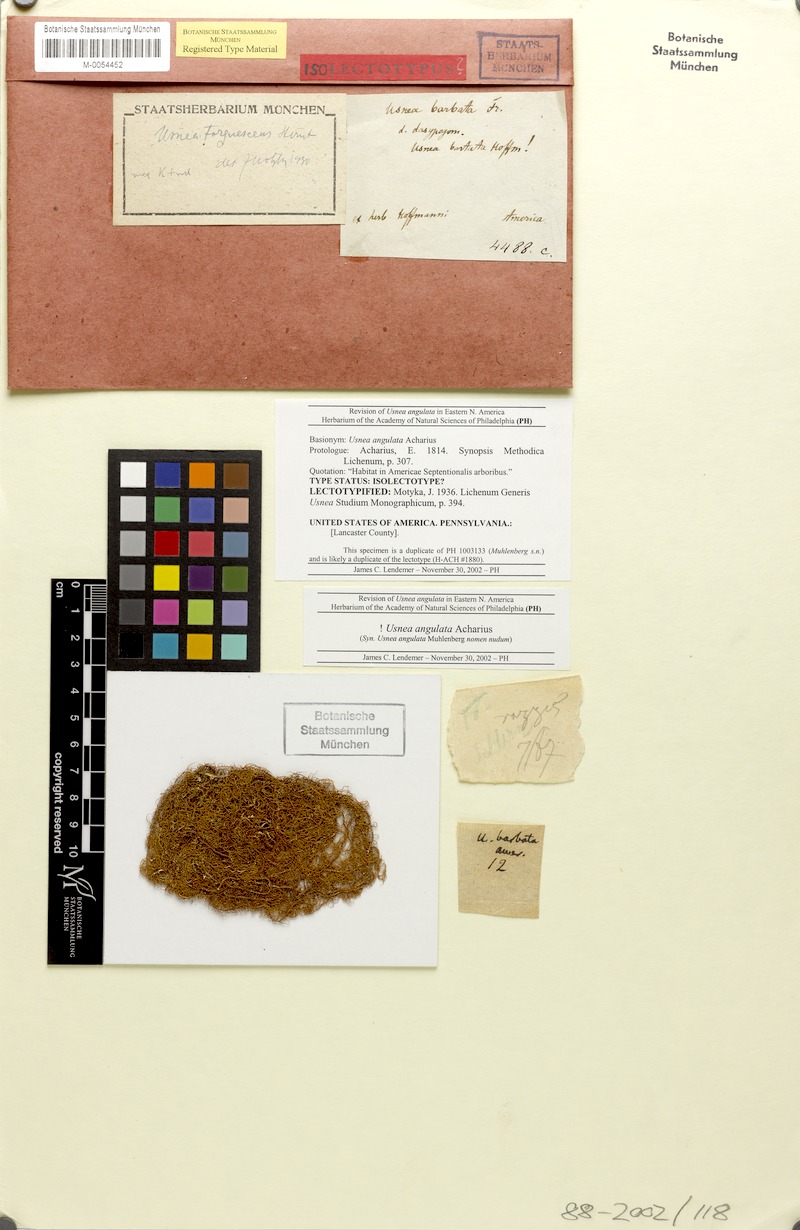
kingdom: Fungi
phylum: Ascomycota
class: Lecanoromycetes
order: Lecanorales
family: Parmeliaceae
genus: Usnea
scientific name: Usnea angulata
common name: Old-man’s beard lichen
